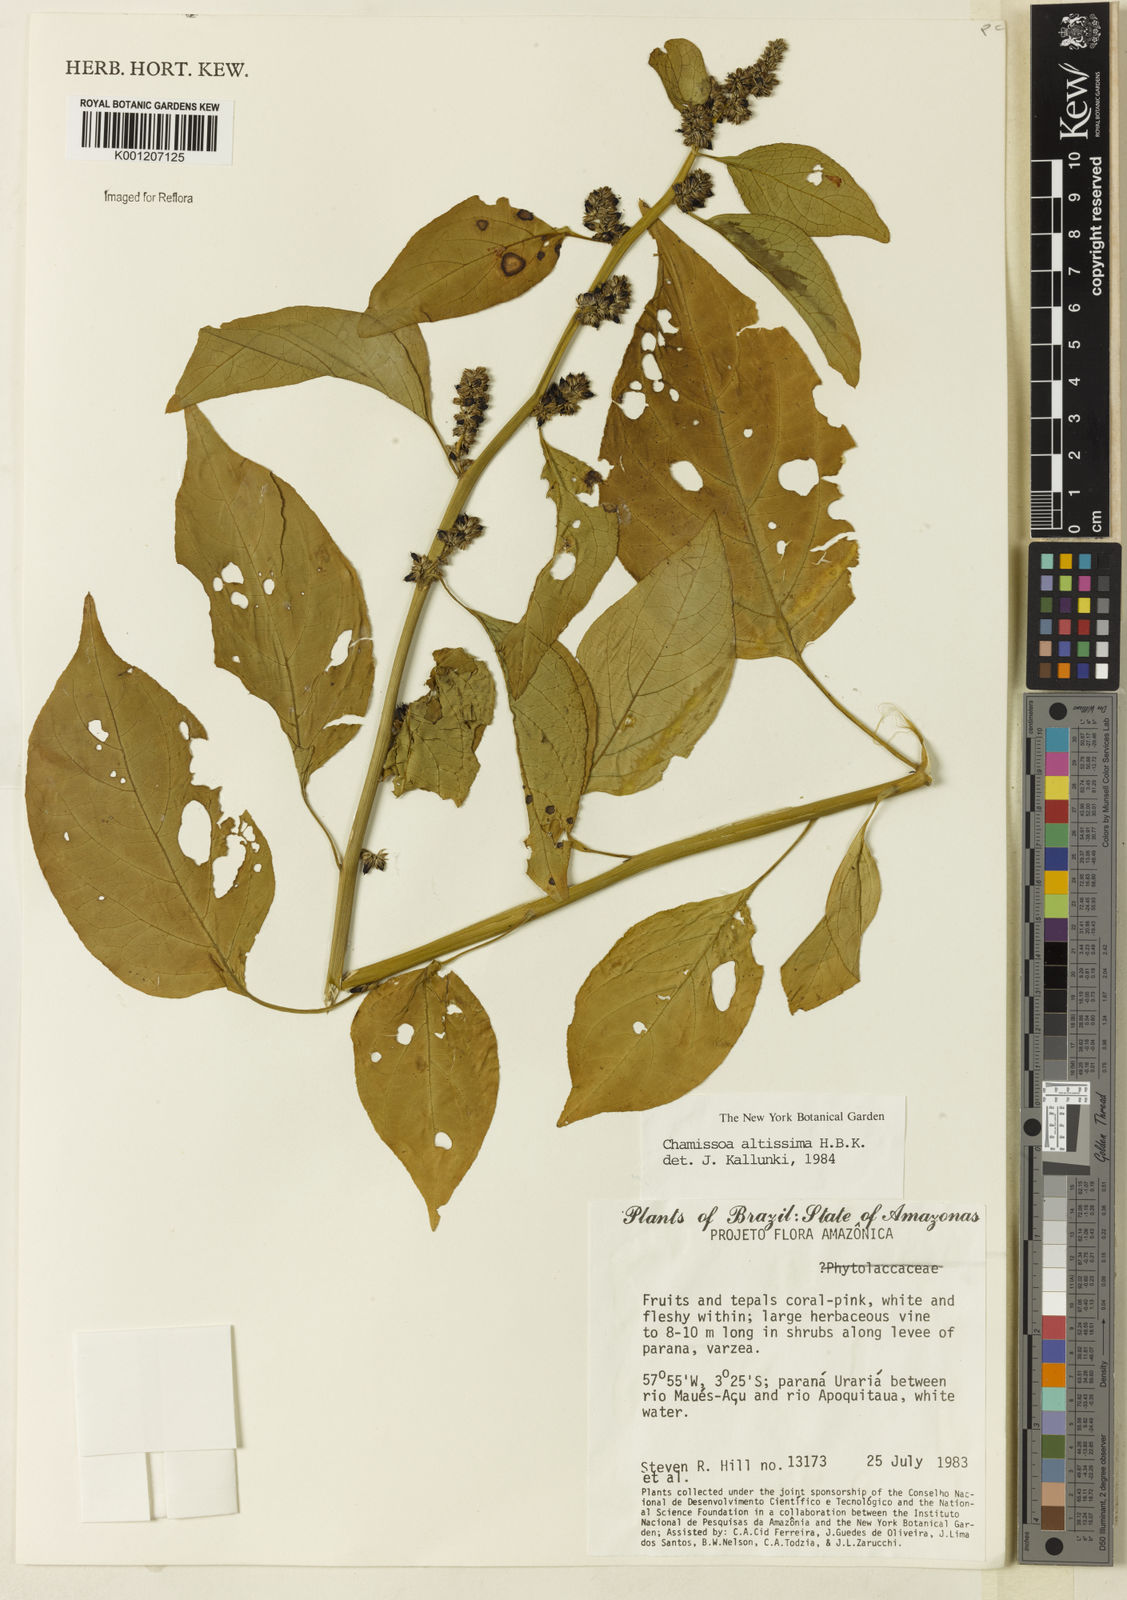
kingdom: Plantae
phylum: Tracheophyta
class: Magnoliopsida
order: Caryophyllales
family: Amaranthaceae
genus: Chamissoa
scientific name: Chamissoa altissima
